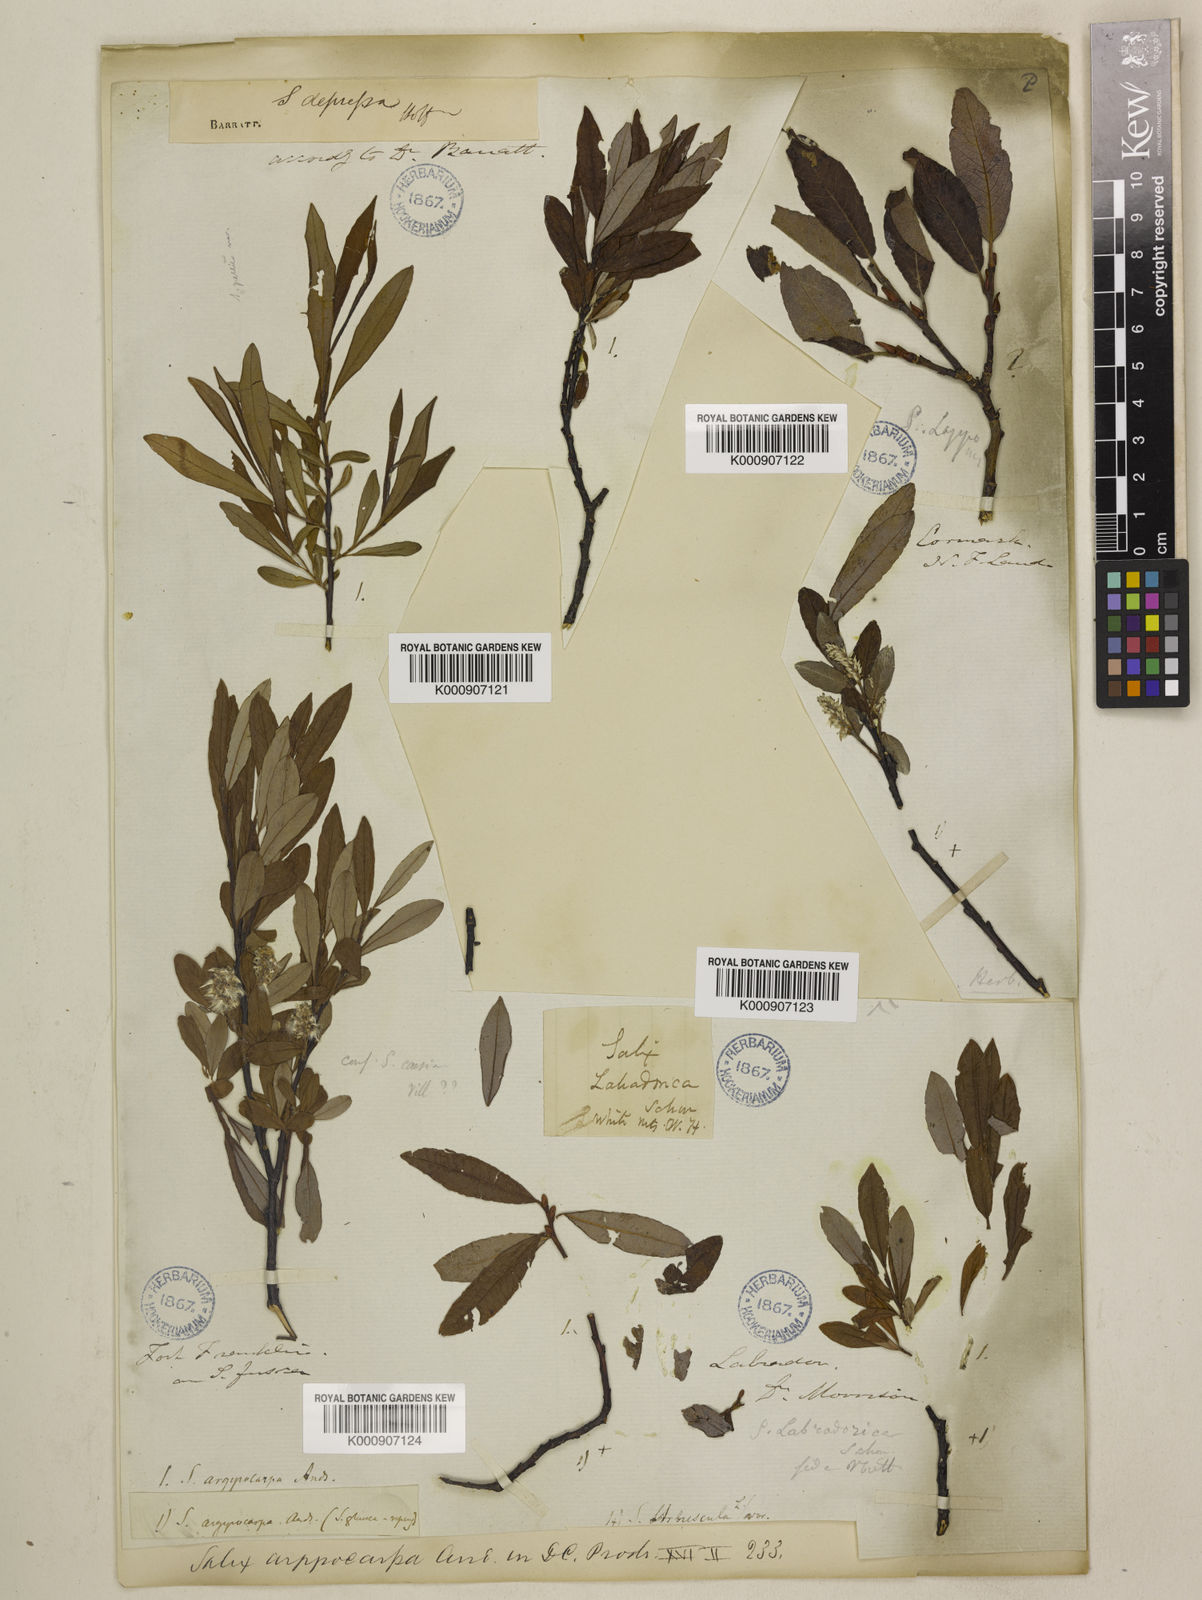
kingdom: Plantae
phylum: Tracheophyta
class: Magnoliopsida
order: Malpighiales
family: Salicaceae
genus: Salix
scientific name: Salix argyrocarpa
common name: Labrador willow
